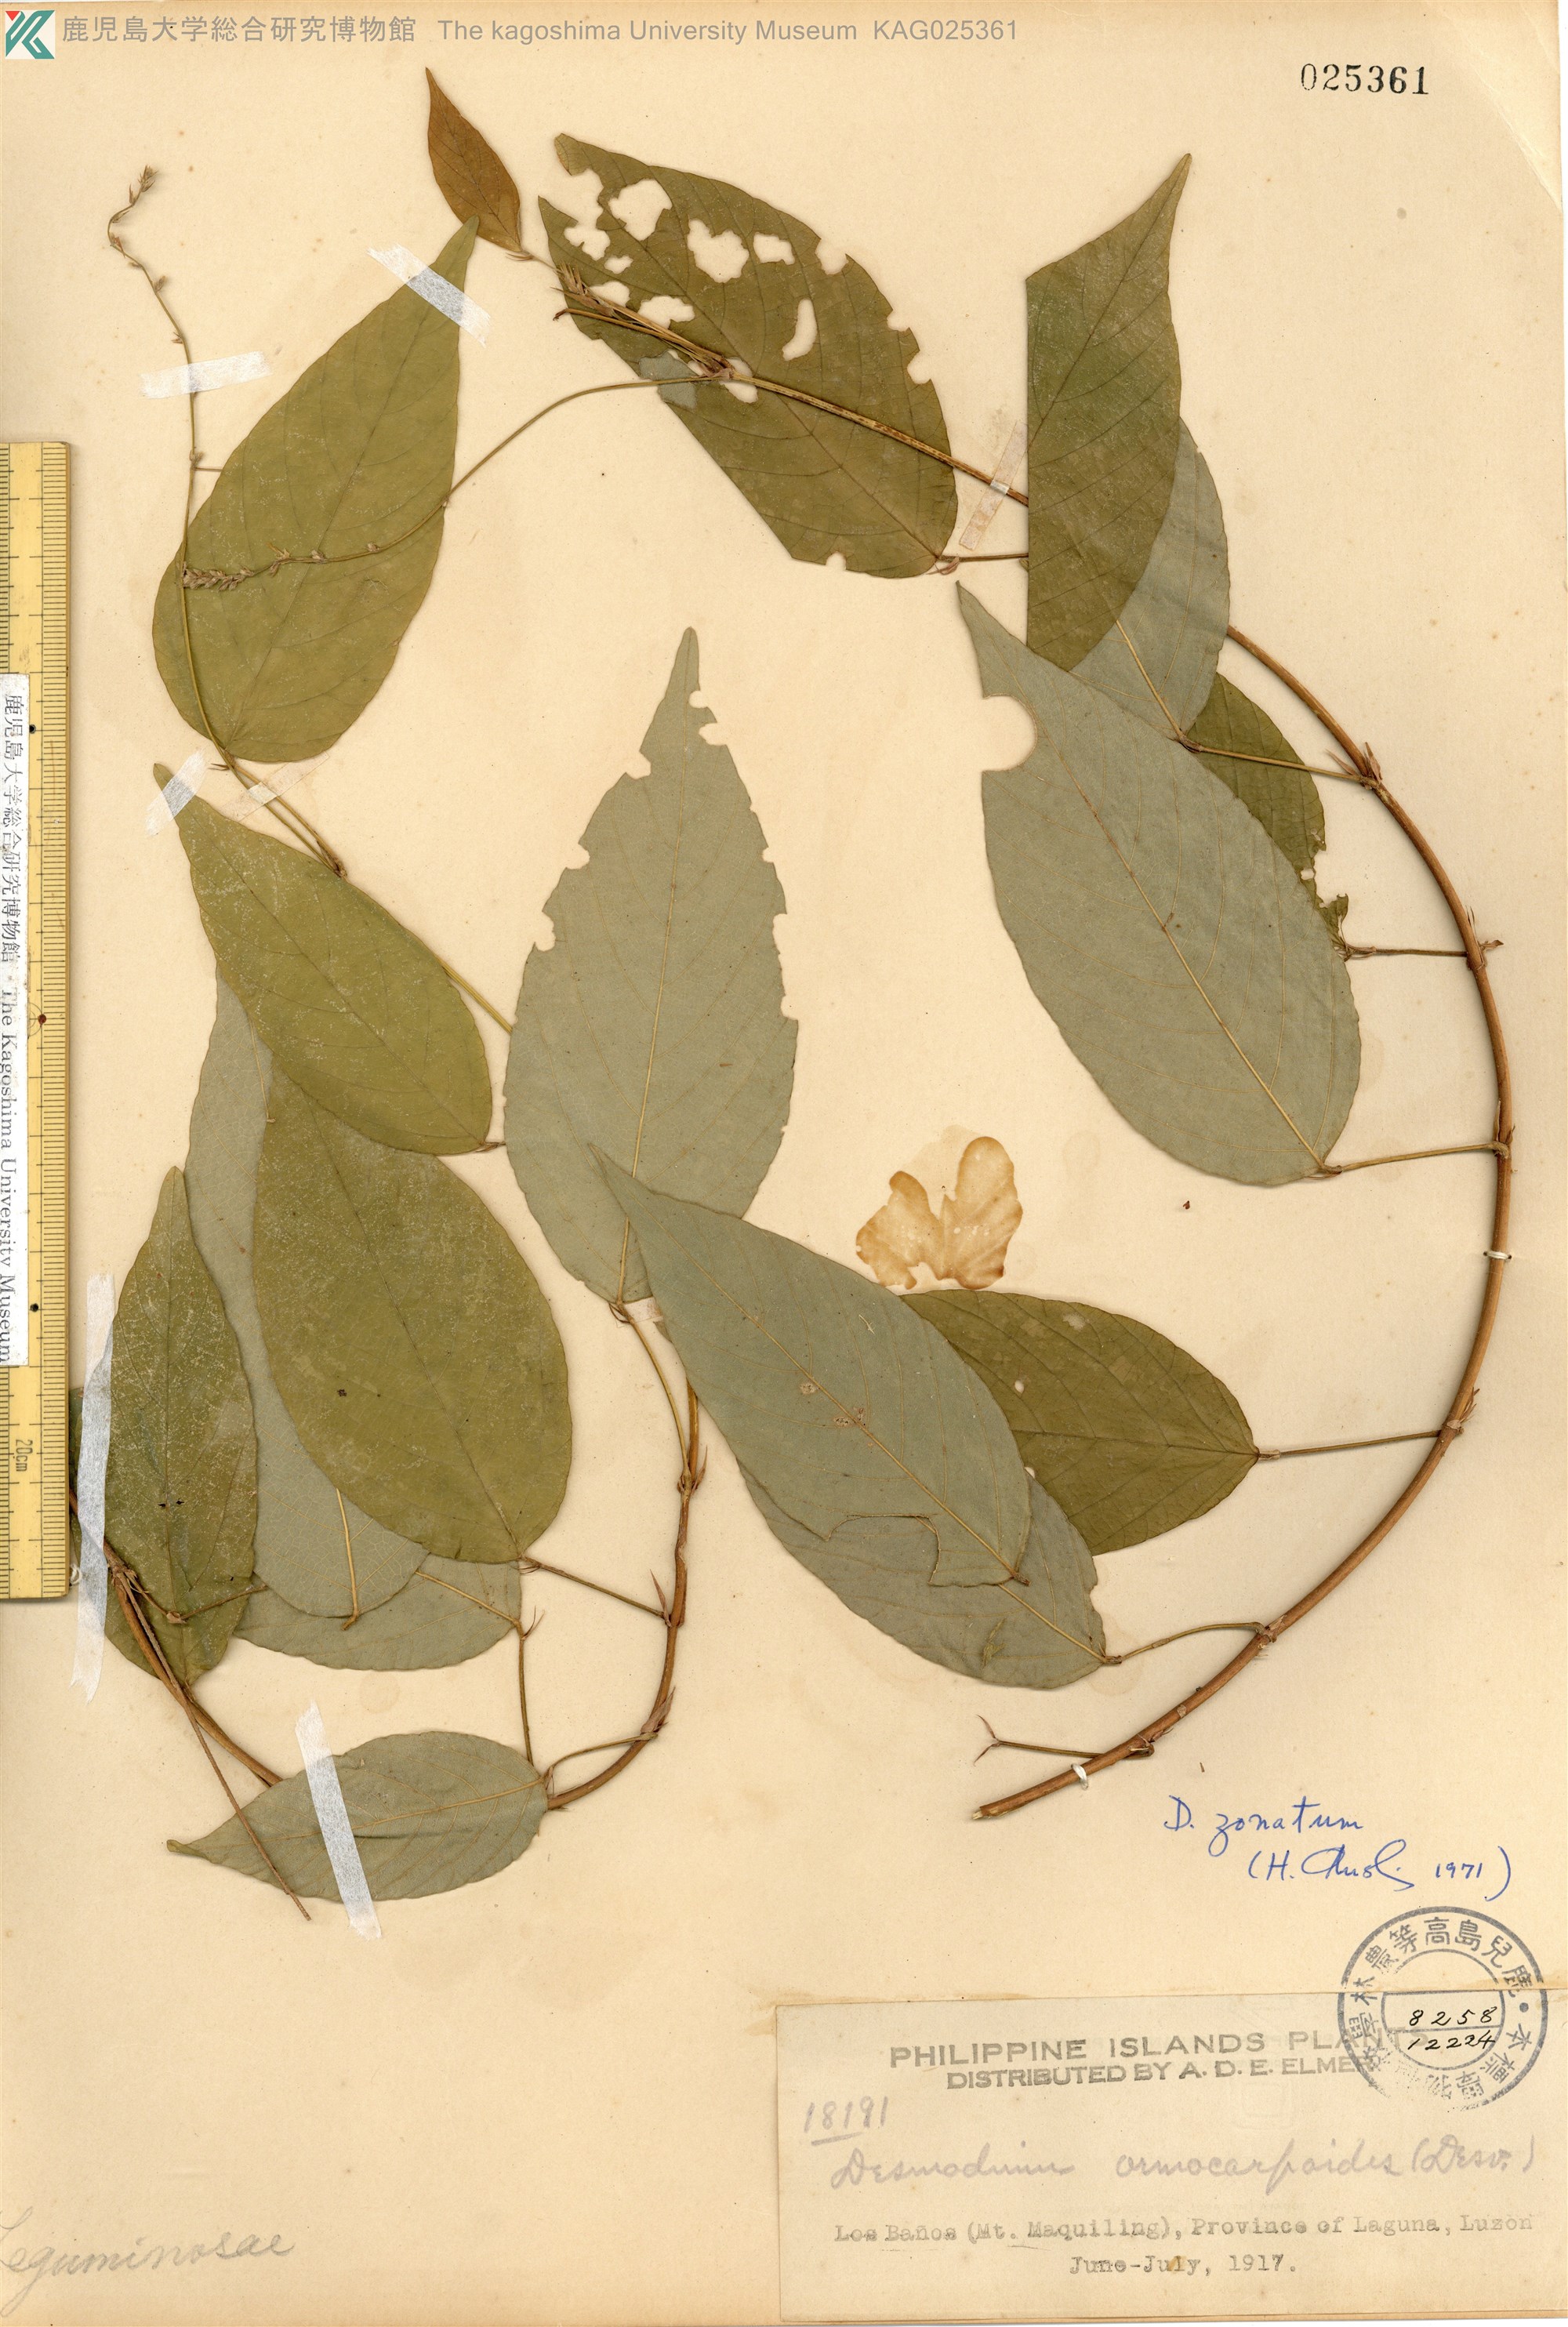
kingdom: Plantae
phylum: Tracheophyta
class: Magnoliopsida
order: Fabales
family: Fabaceae
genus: Sohmaea
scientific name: Sohmaea zonata
